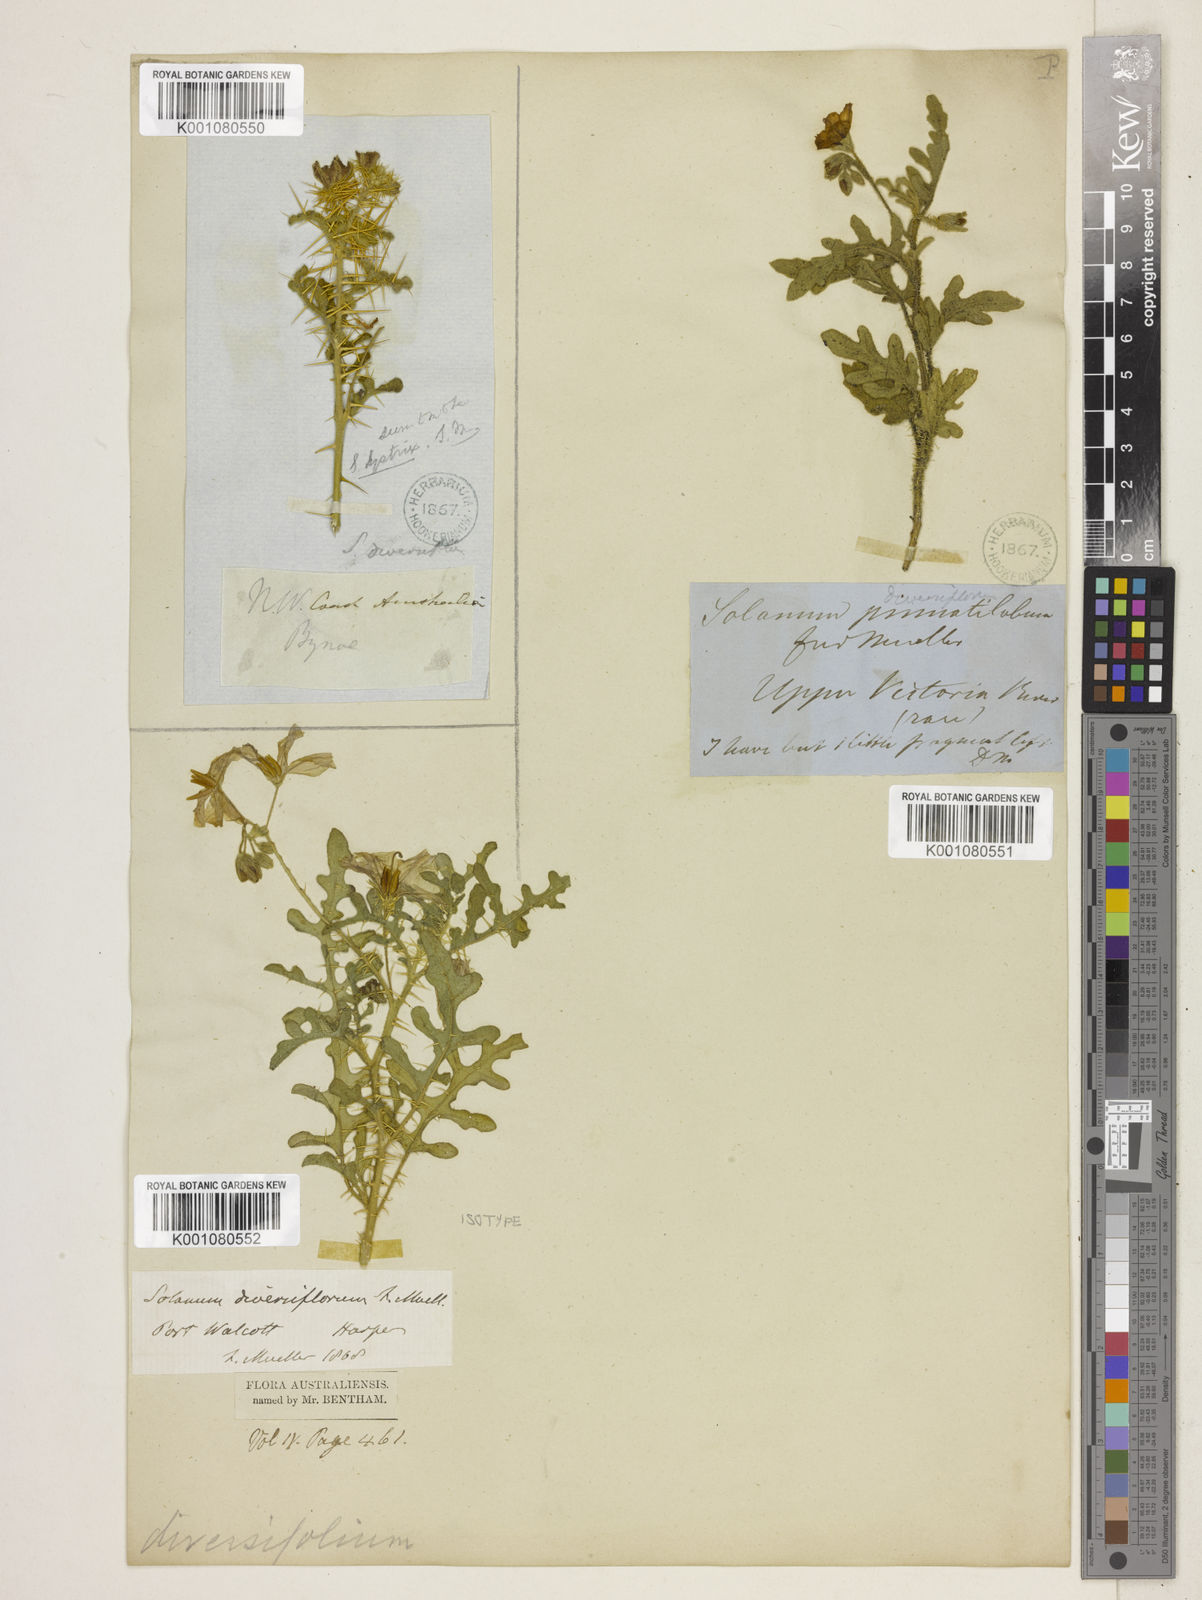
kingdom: Plantae
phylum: Tracheophyta
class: Magnoliopsida
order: Solanales
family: Solanaceae
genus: Solanum
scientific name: Solanum diversiflorum
